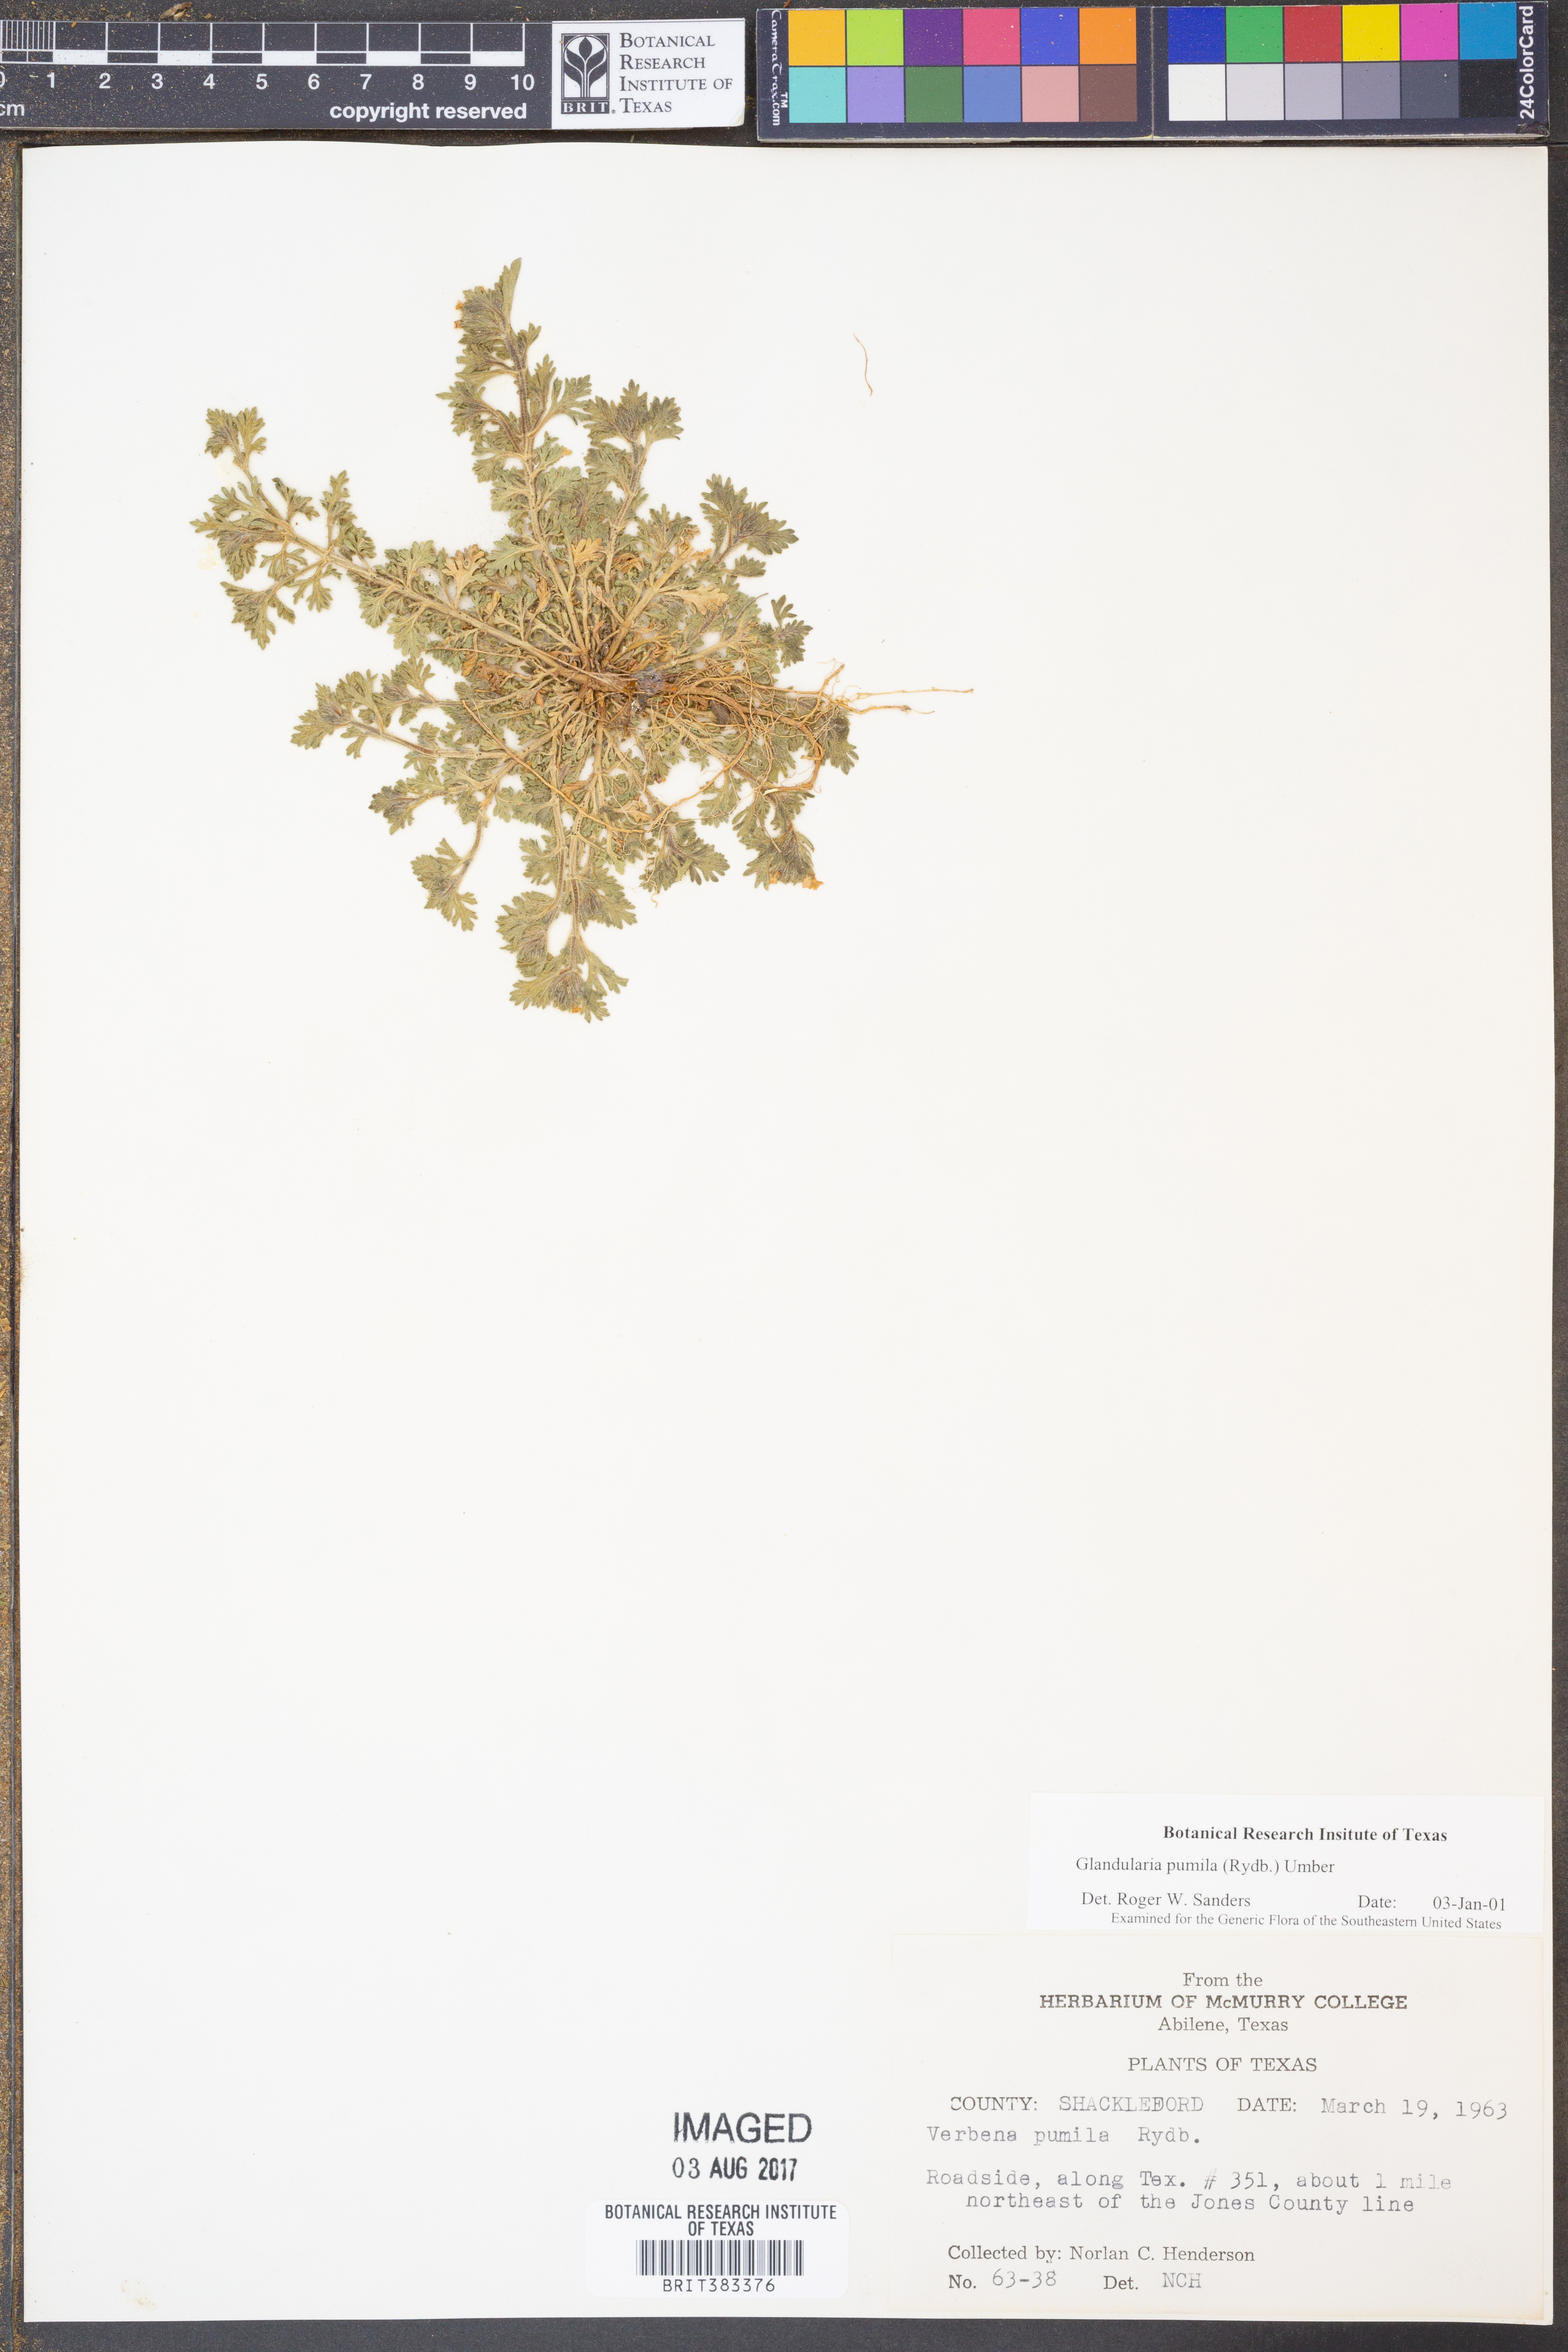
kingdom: Plantae
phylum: Tracheophyta
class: Magnoliopsida
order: Lamiales
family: Verbenaceae
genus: Verbena
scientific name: Verbena pumila
